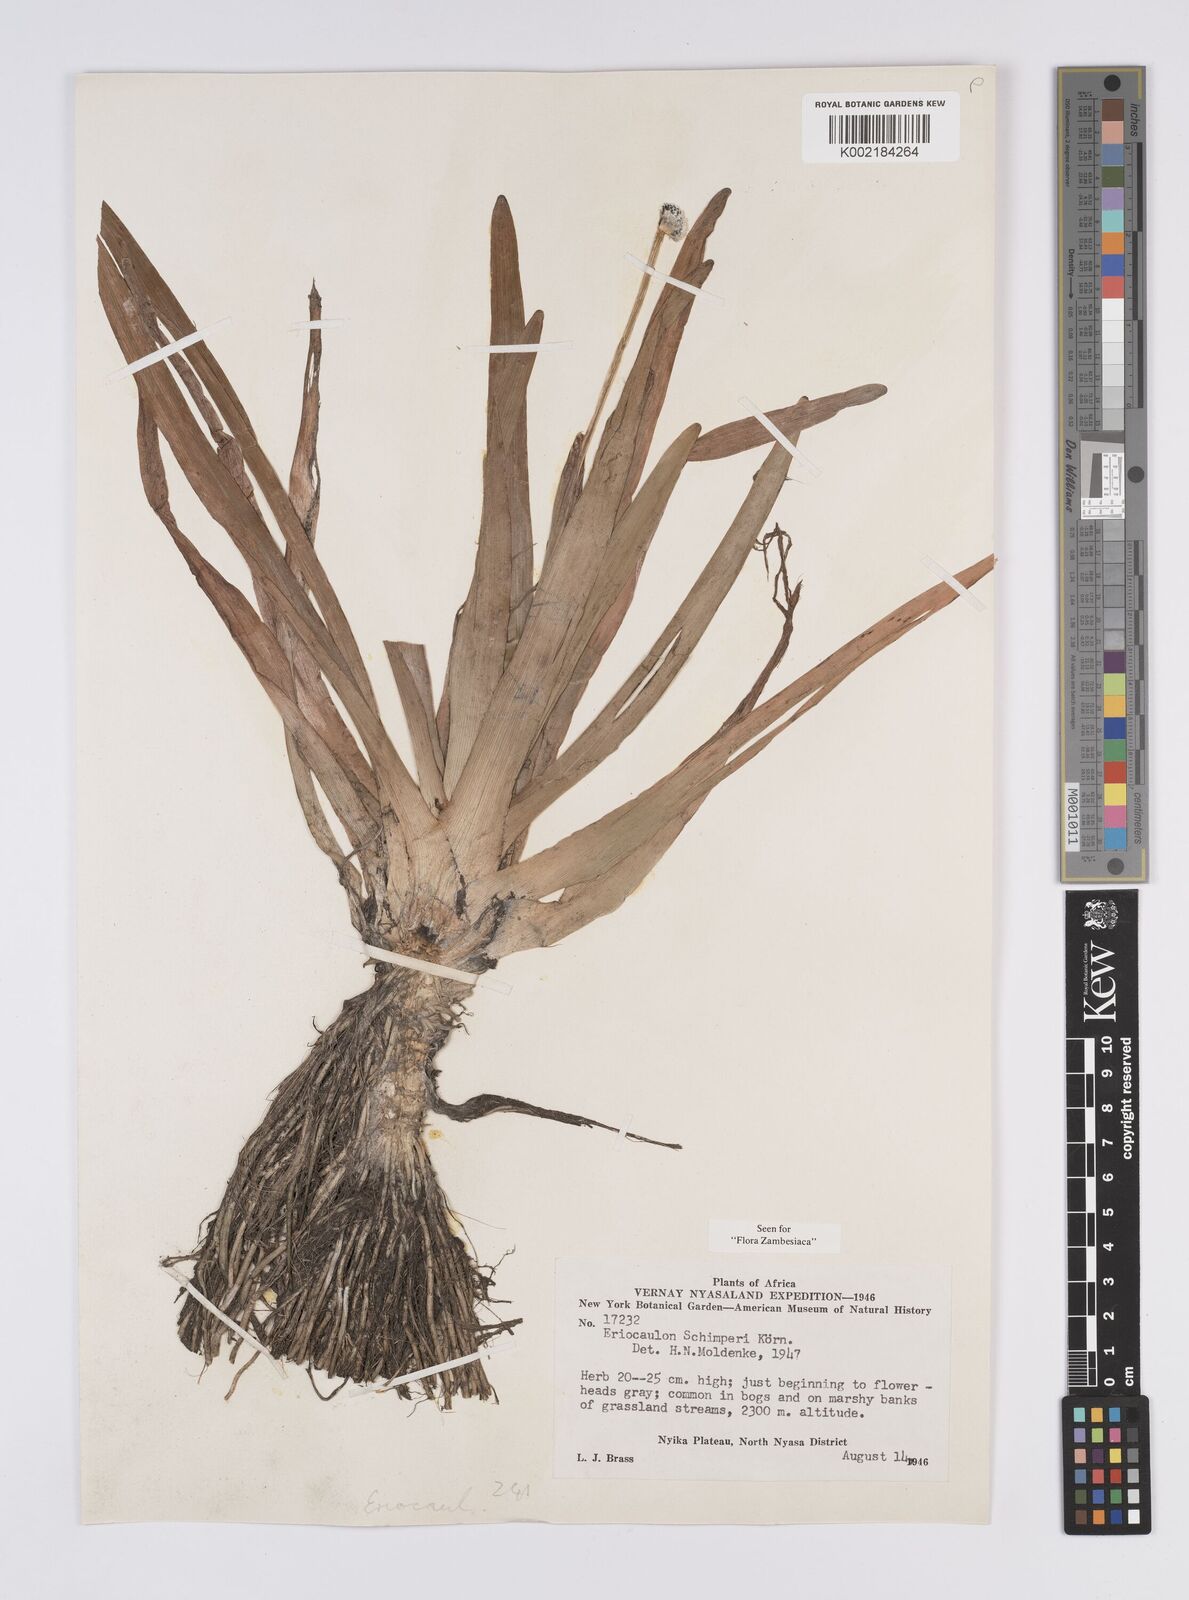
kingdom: Plantae
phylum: Tracheophyta
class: Liliopsida
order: Poales
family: Eriocaulaceae
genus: Eriocaulon
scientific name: Eriocaulon schimperi
